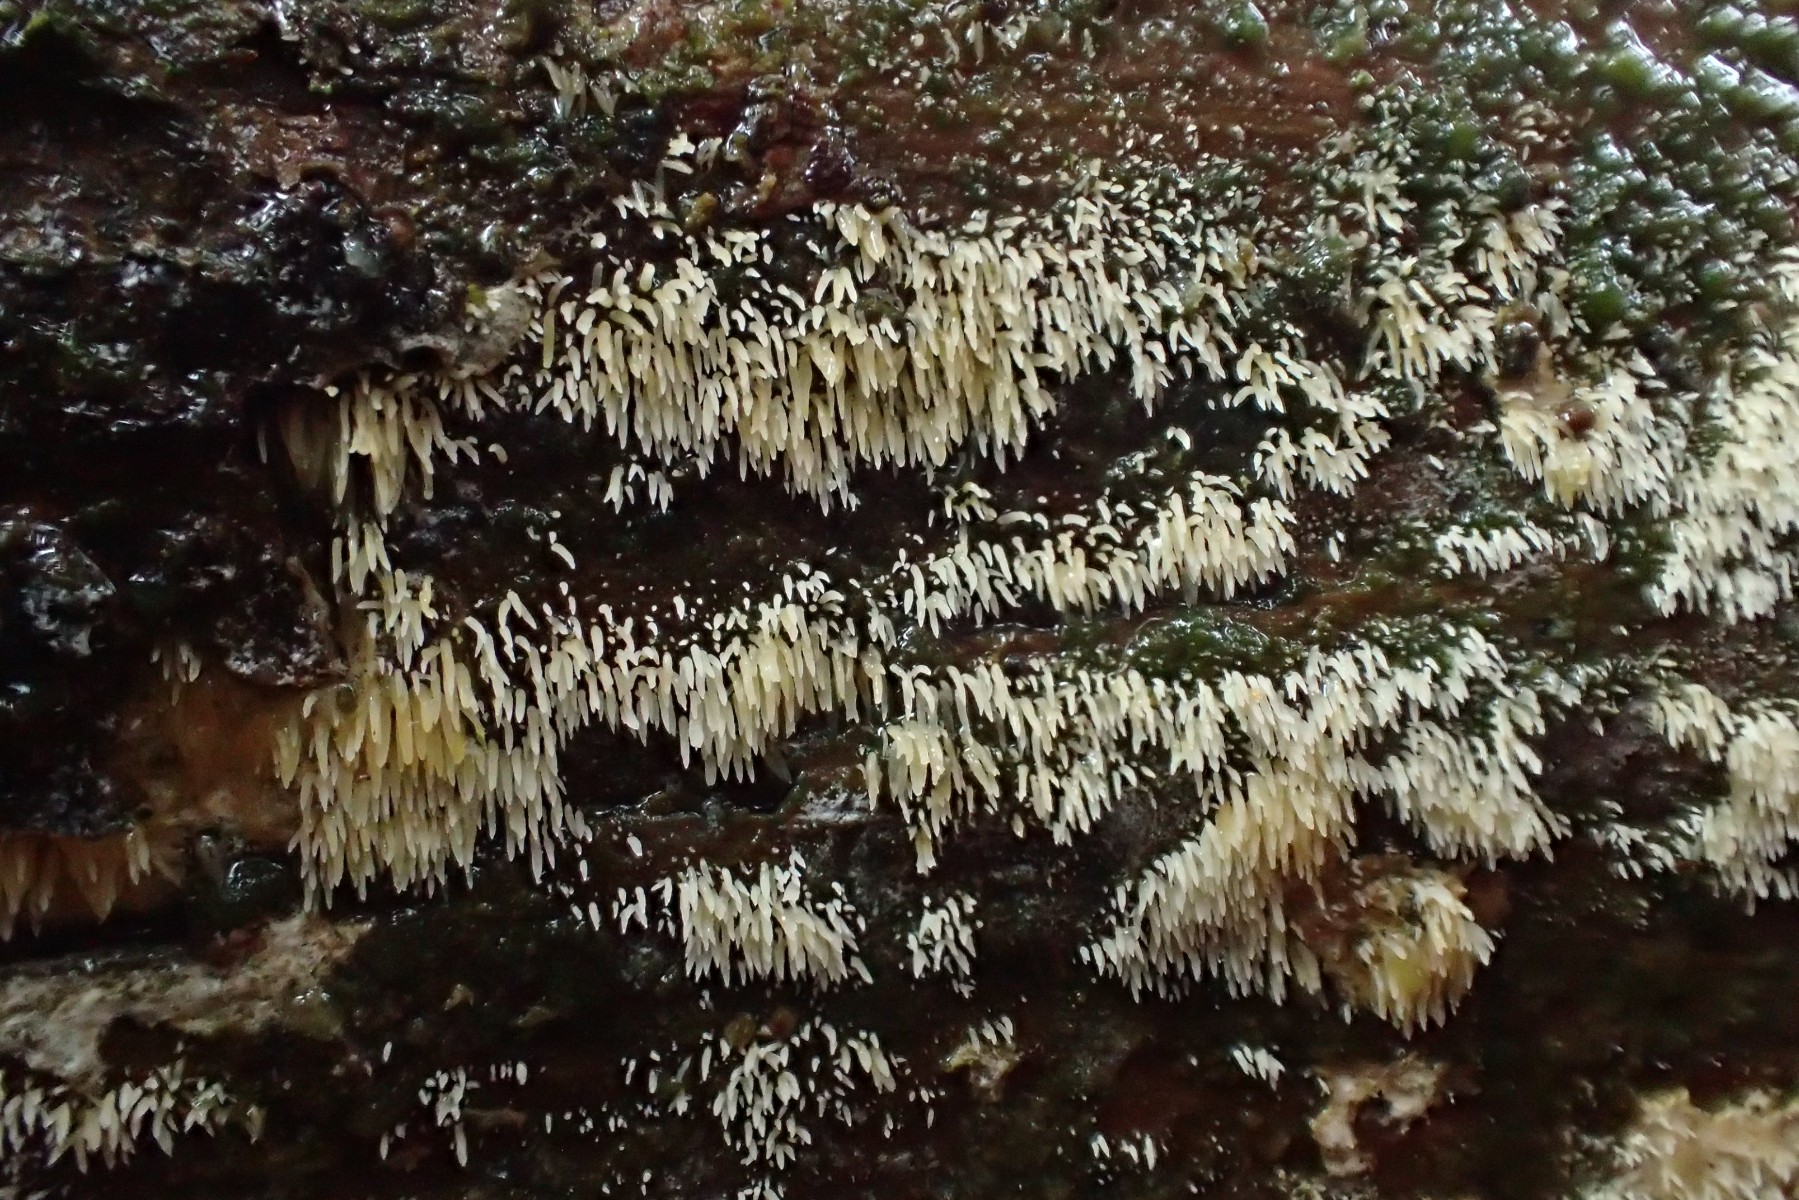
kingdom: Fungi
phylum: Basidiomycota
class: Agaricomycetes
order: Agaricales
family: Clavariaceae
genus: Mucronella
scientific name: Mucronella calva
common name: hvid hængepig
